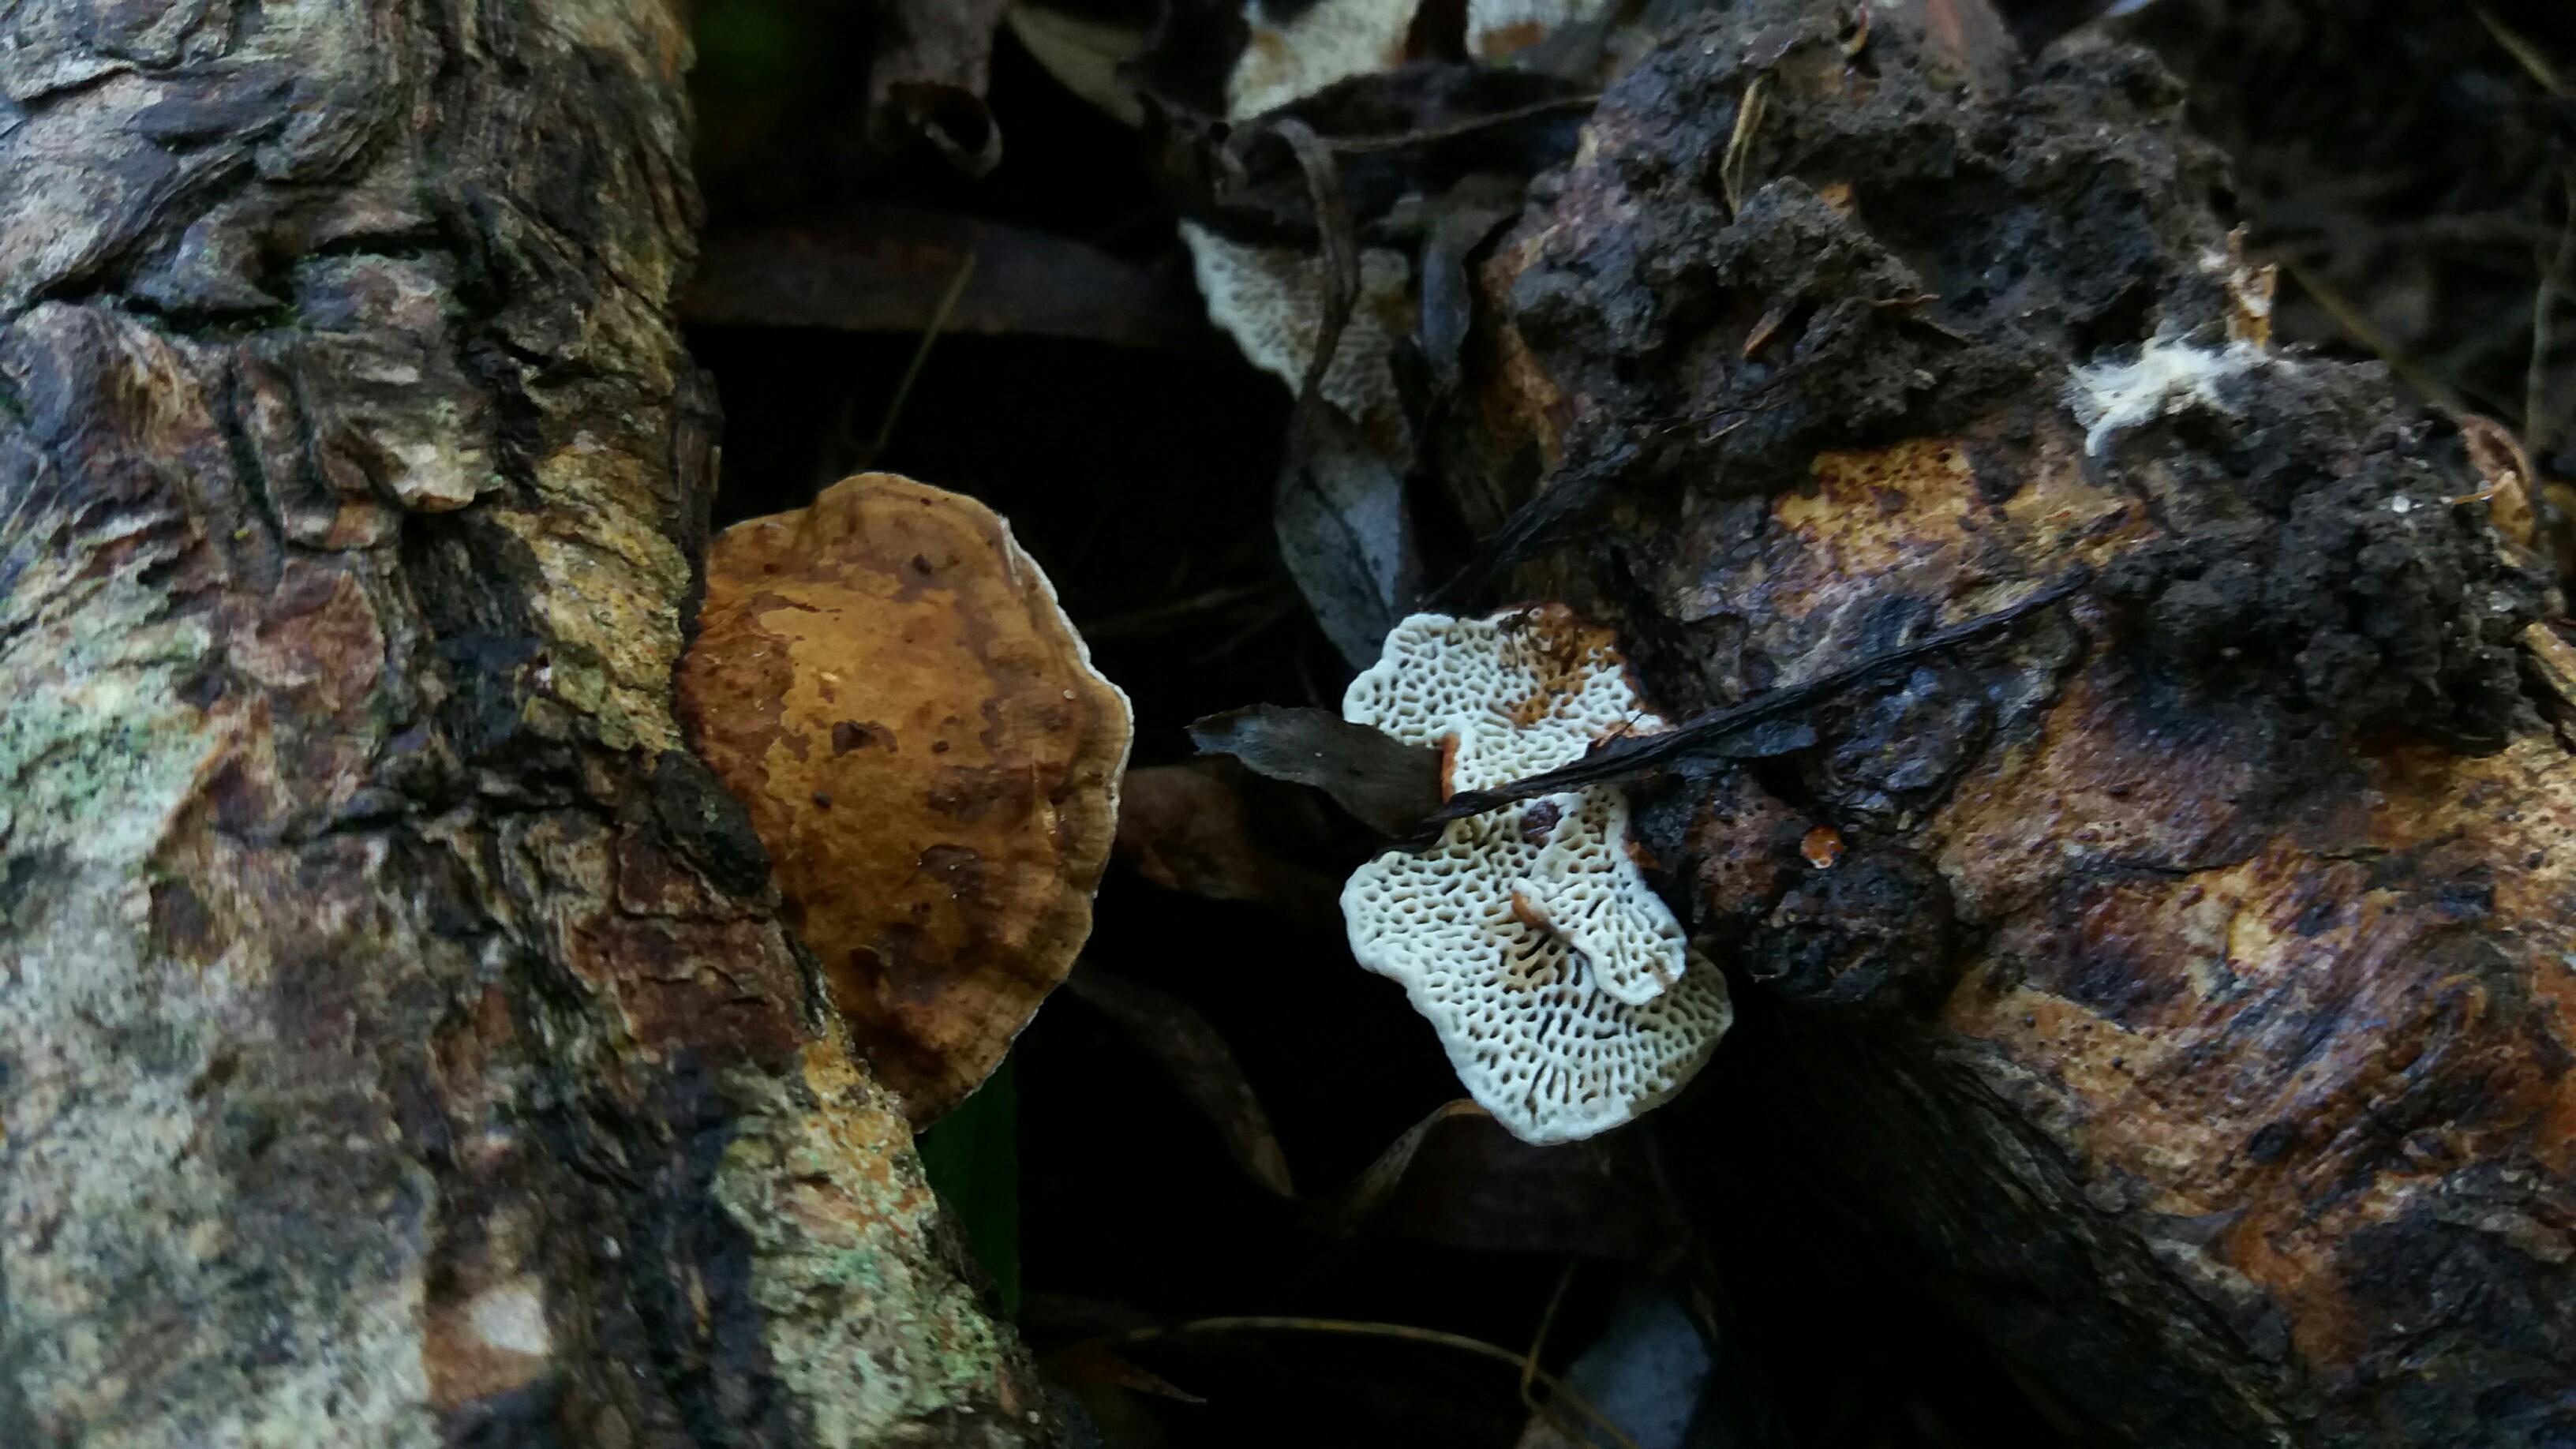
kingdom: Fungi
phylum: Basidiomycota
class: Agaricomycetes
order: Polyporales
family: Polyporaceae
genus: Daedaleopsis
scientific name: Daedaleopsis confragosa
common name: rødmende læderporesvamp
